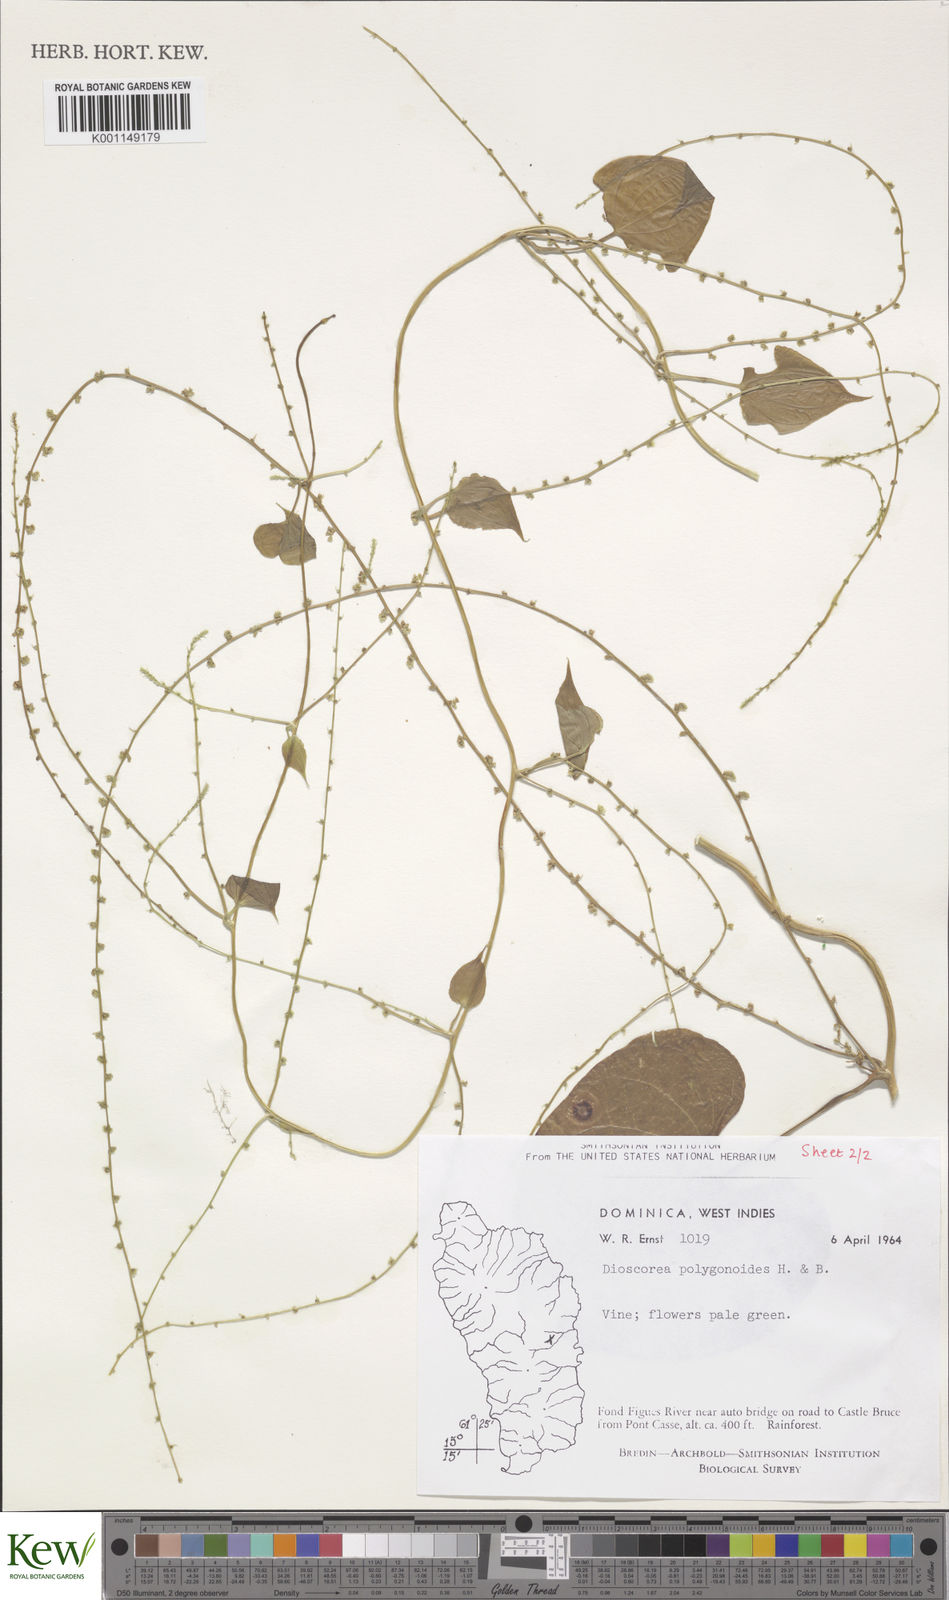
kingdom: Plantae
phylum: Tracheophyta
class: Liliopsida
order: Dioscoreales
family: Dioscoreaceae
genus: Dioscorea
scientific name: Dioscorea polygonoides
